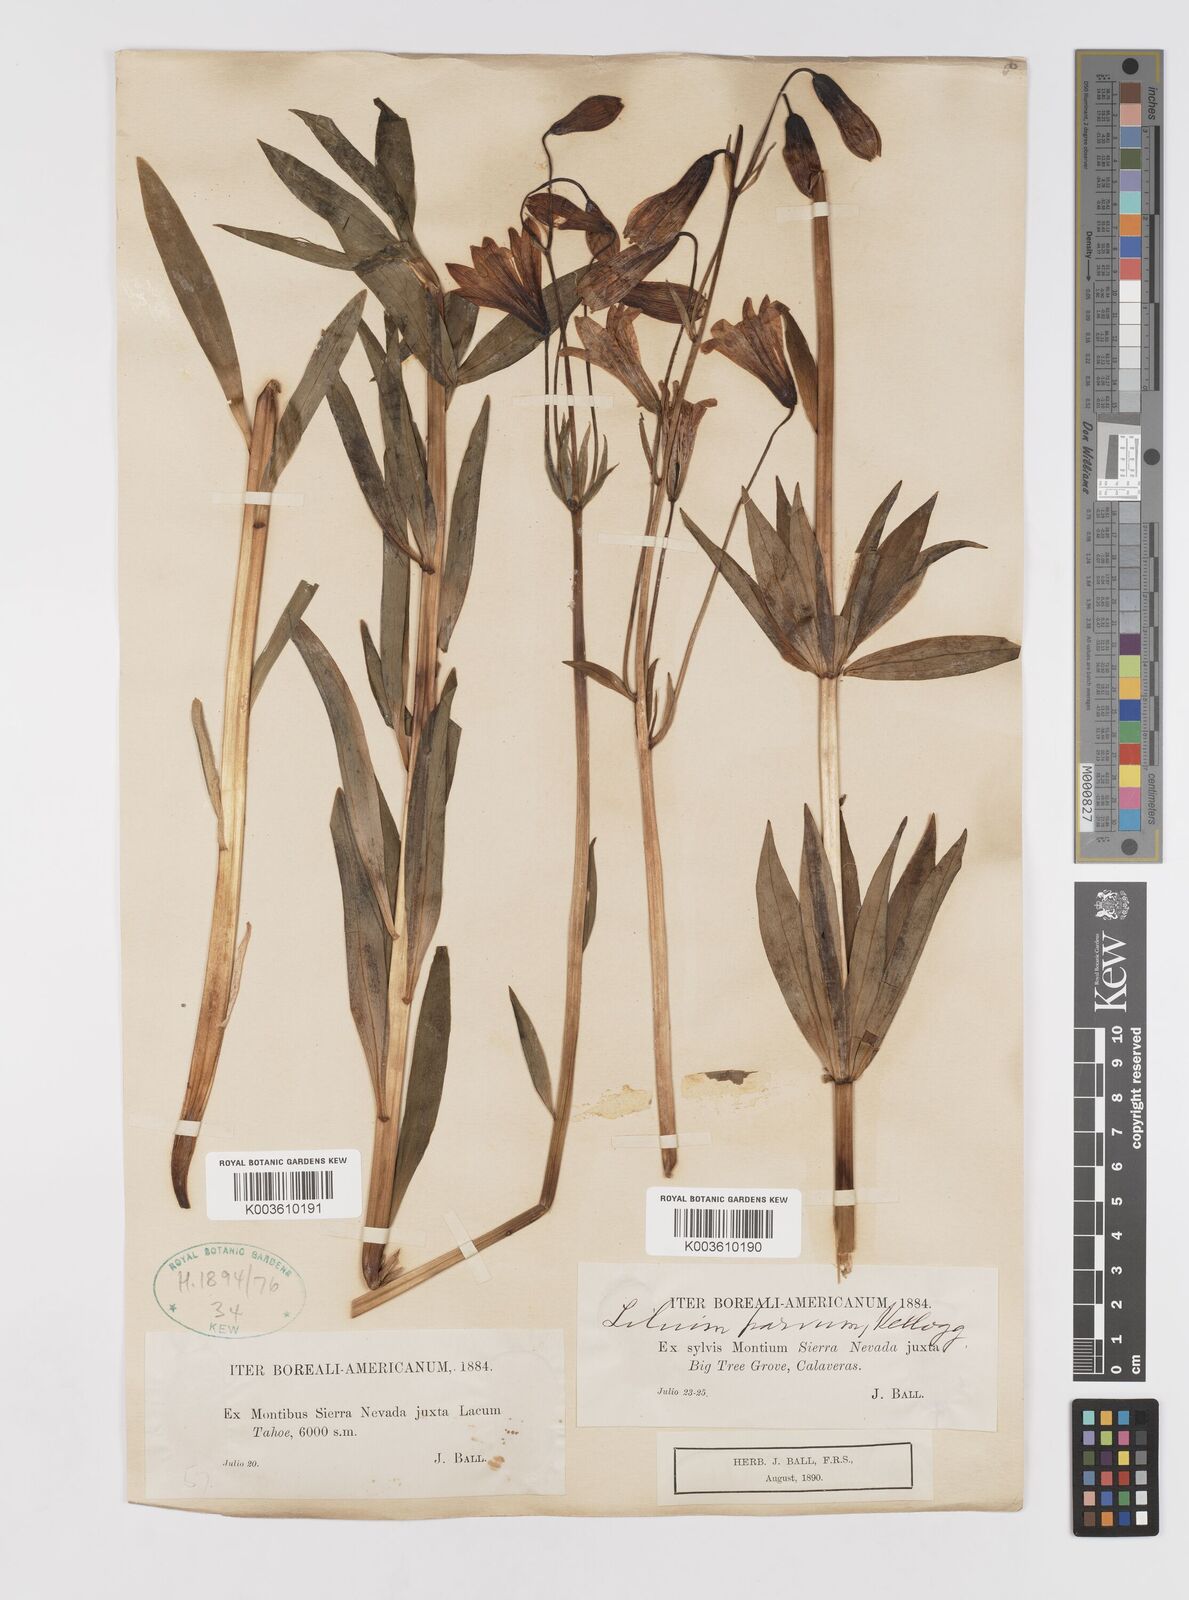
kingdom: Plantae
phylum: Tracheophyta
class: Liliopsida
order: Liliales
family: Liliaceae
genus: Lilium
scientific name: Lilium parvum
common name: Alpine lily
